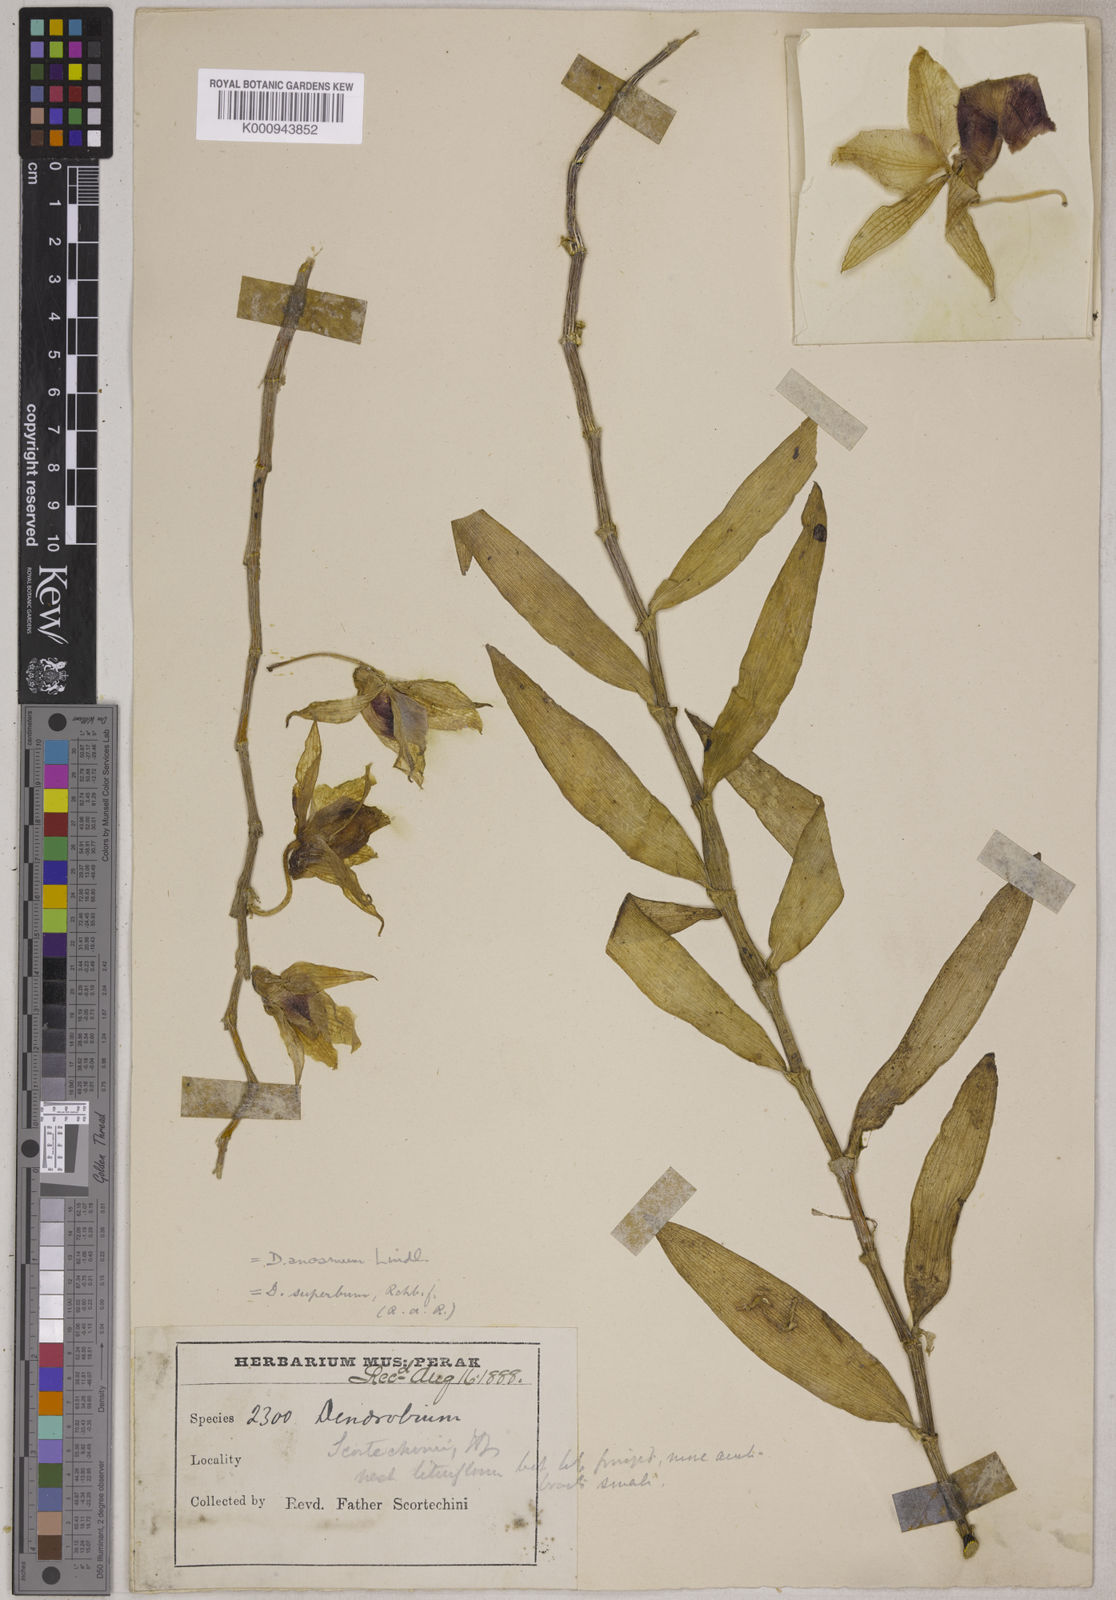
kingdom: Plantae
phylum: Tracheophyta
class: Liliopsida
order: Asparagales
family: Orchidaceae
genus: Dendrobium
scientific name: Dendrobium anosmum
